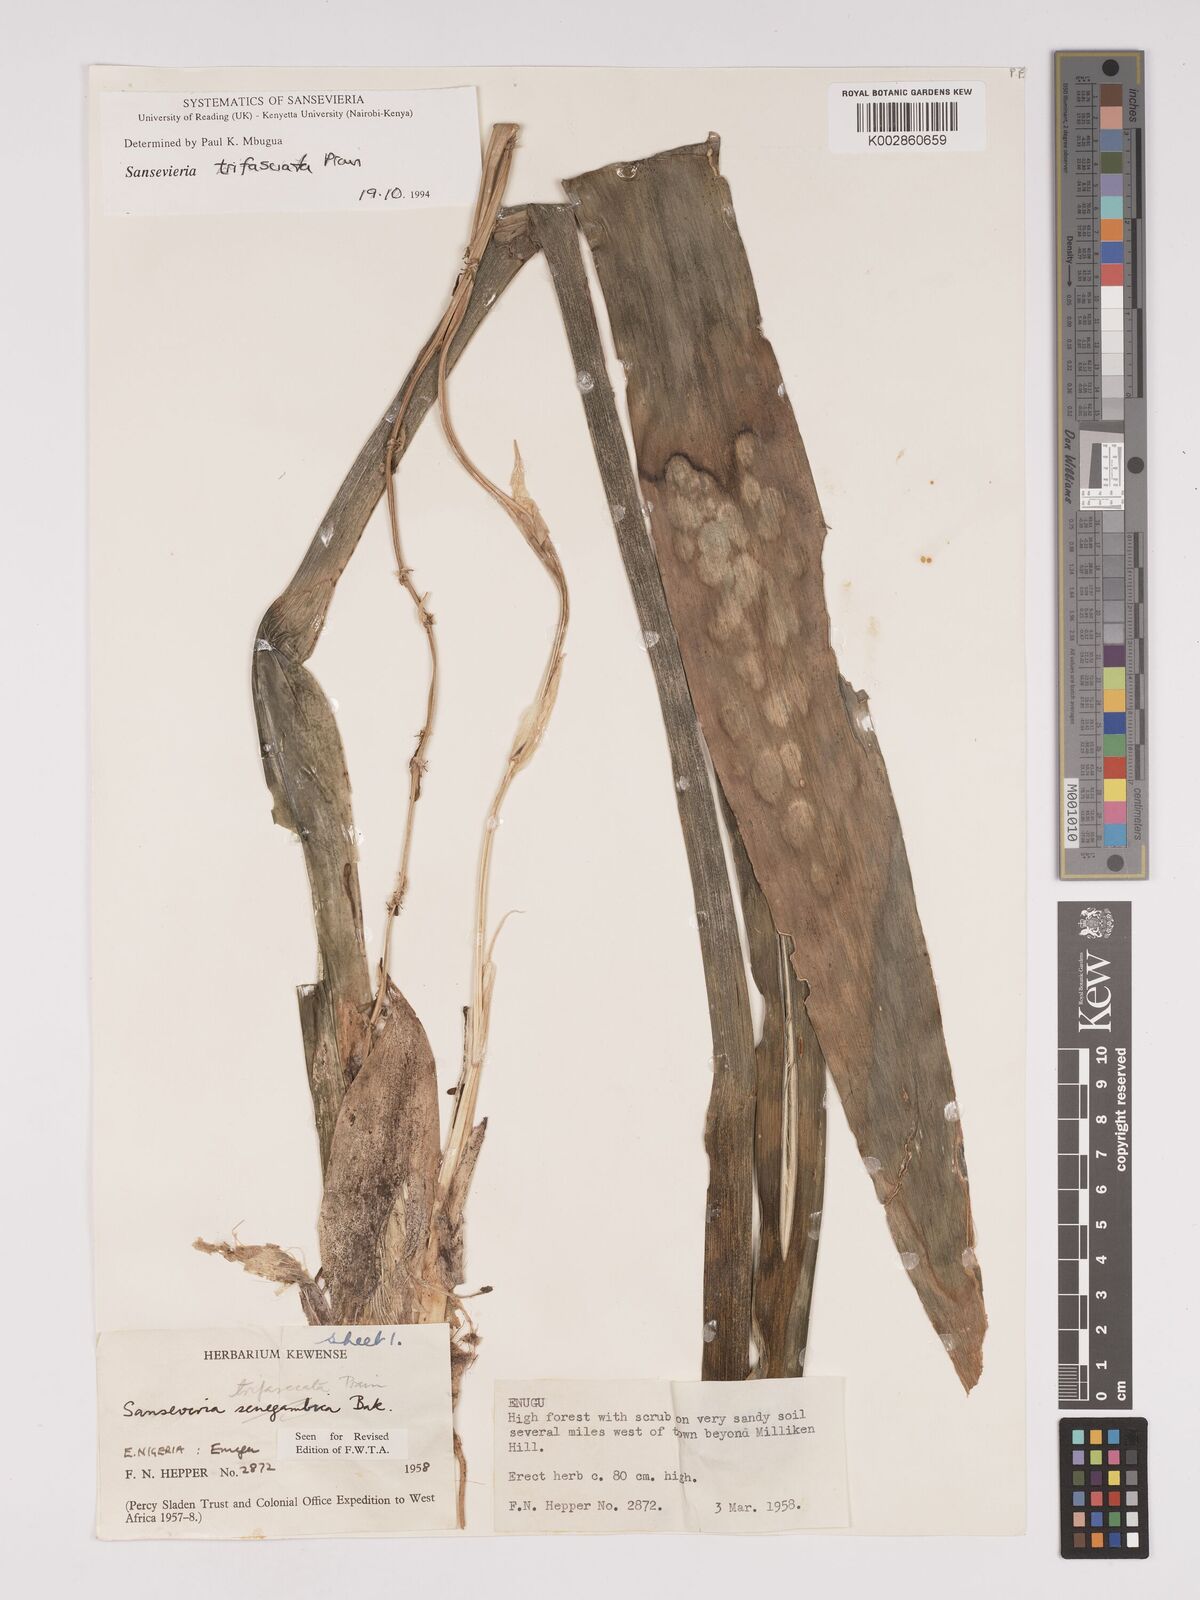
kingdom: Plantae
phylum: Tracheophyta
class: Liliopsida
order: Asparagales
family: Asparagaceae
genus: Dracaena
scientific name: Dracaena trifasciata
